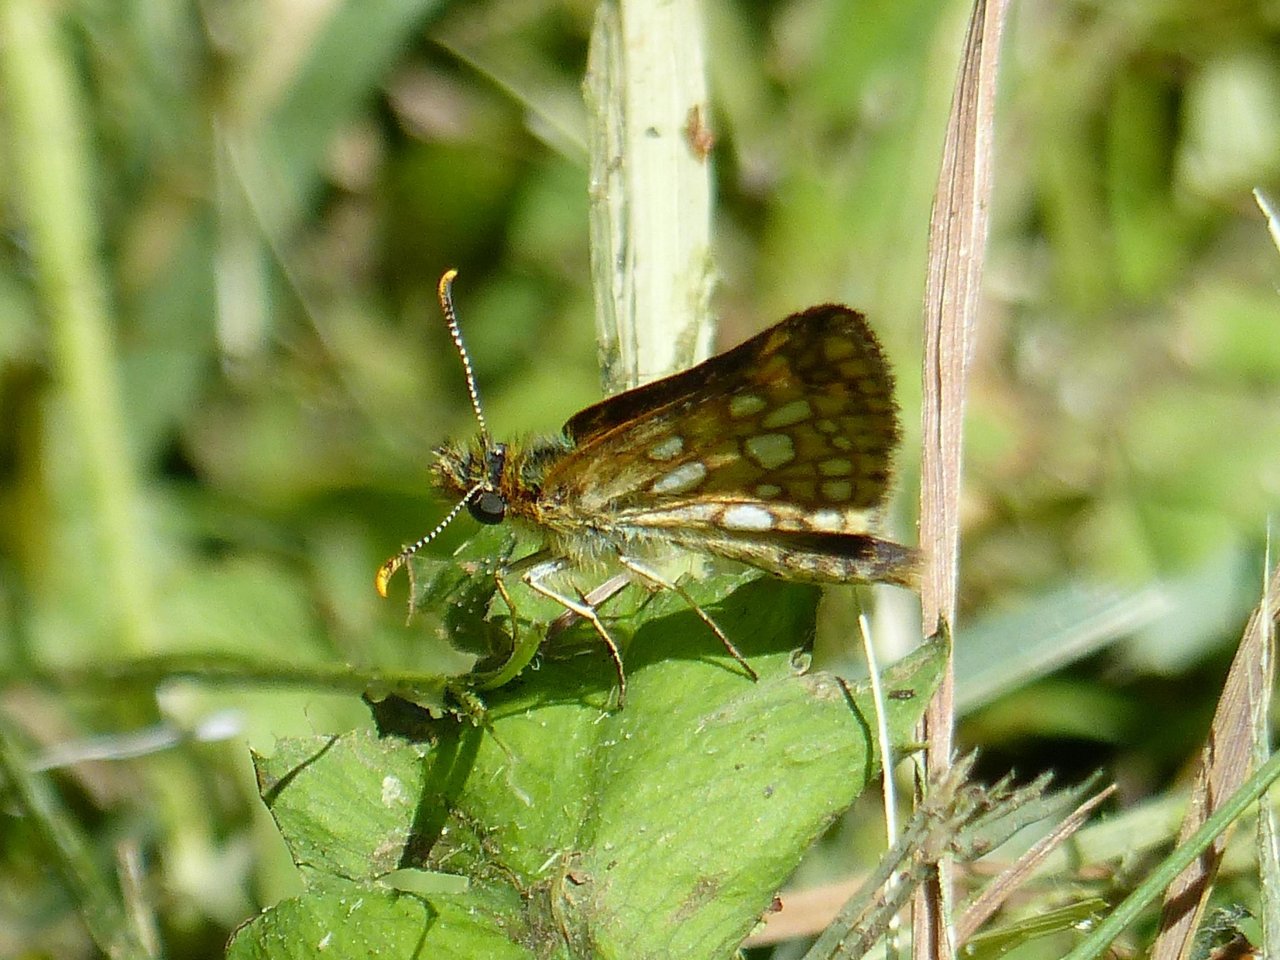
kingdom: Animalia
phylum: Arthropoda
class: Insecta
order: Lepidoptera
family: Hesperiidae
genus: Carterocephalus
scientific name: Carterocephalus palaemon
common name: Chequered Skipper
